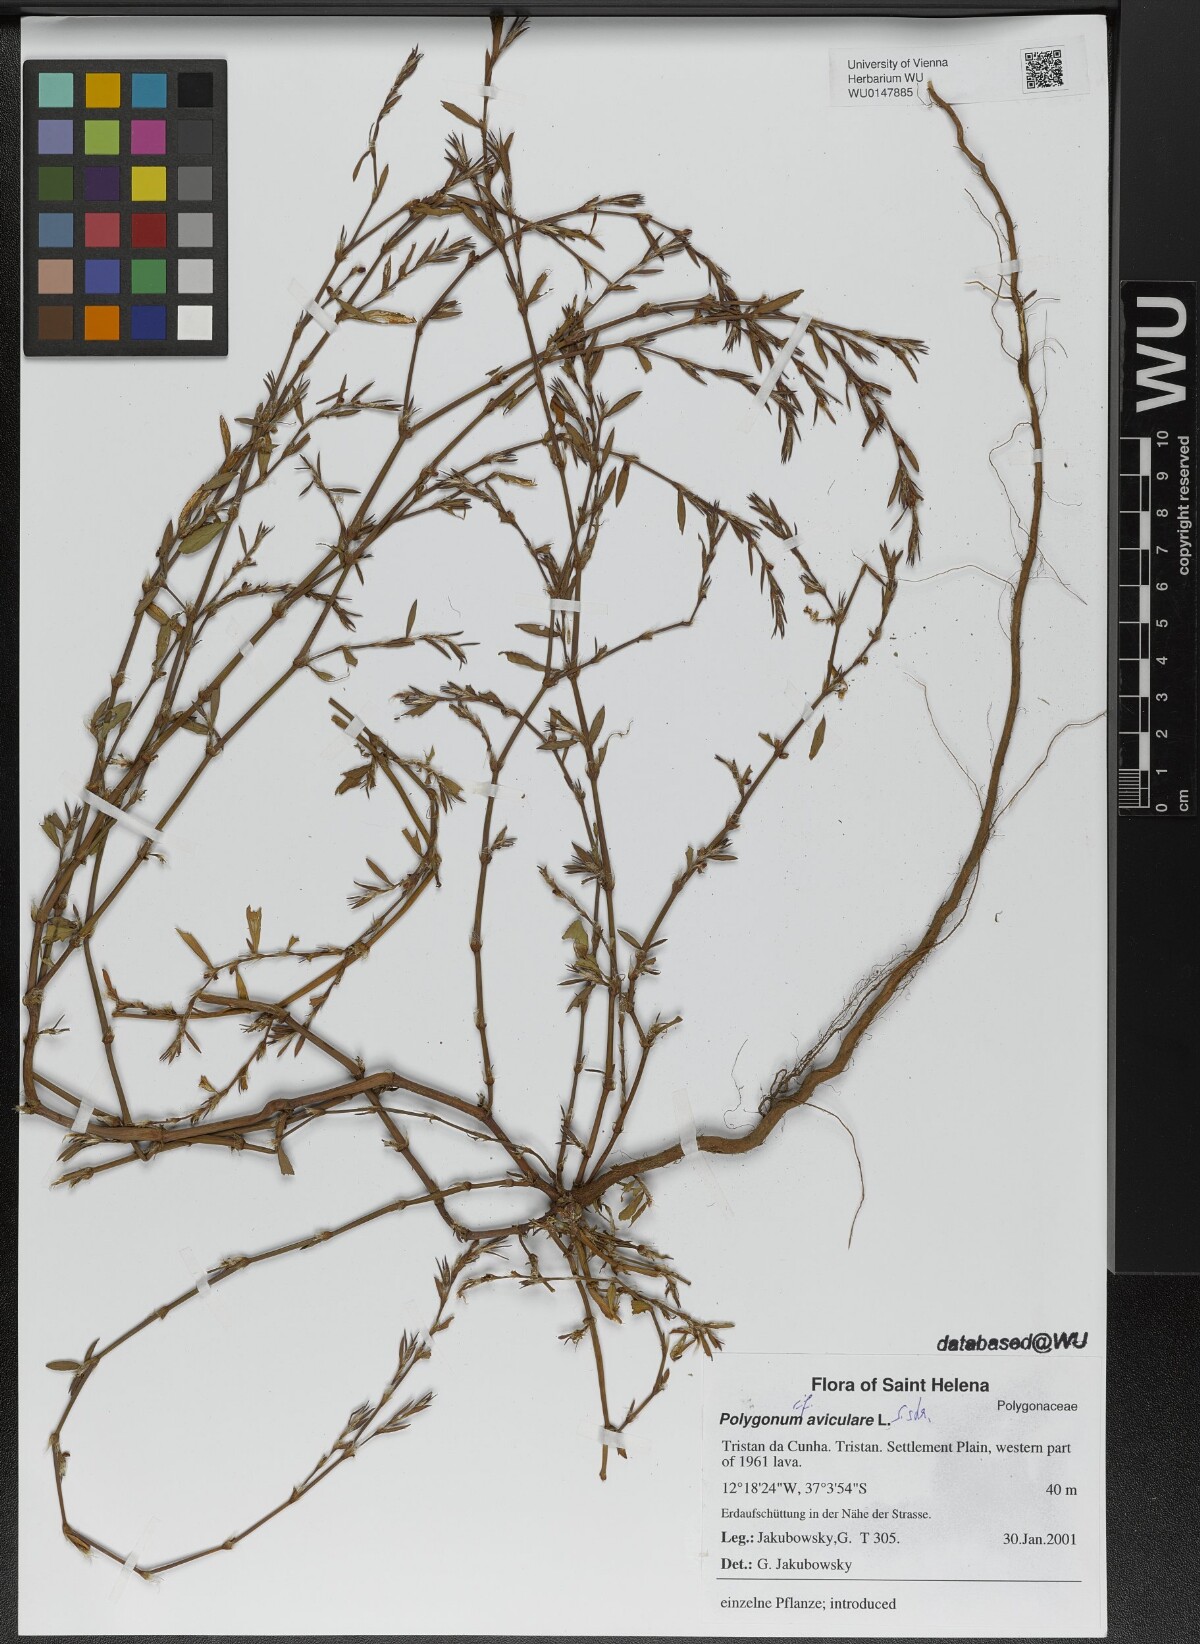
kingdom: Plantae
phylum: Tracheophyta
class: Magnoliopsida
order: Caryophyllales
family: Polygonaceae
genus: Polygonum
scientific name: Polygonum aviculare
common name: Prostrate knotweed
